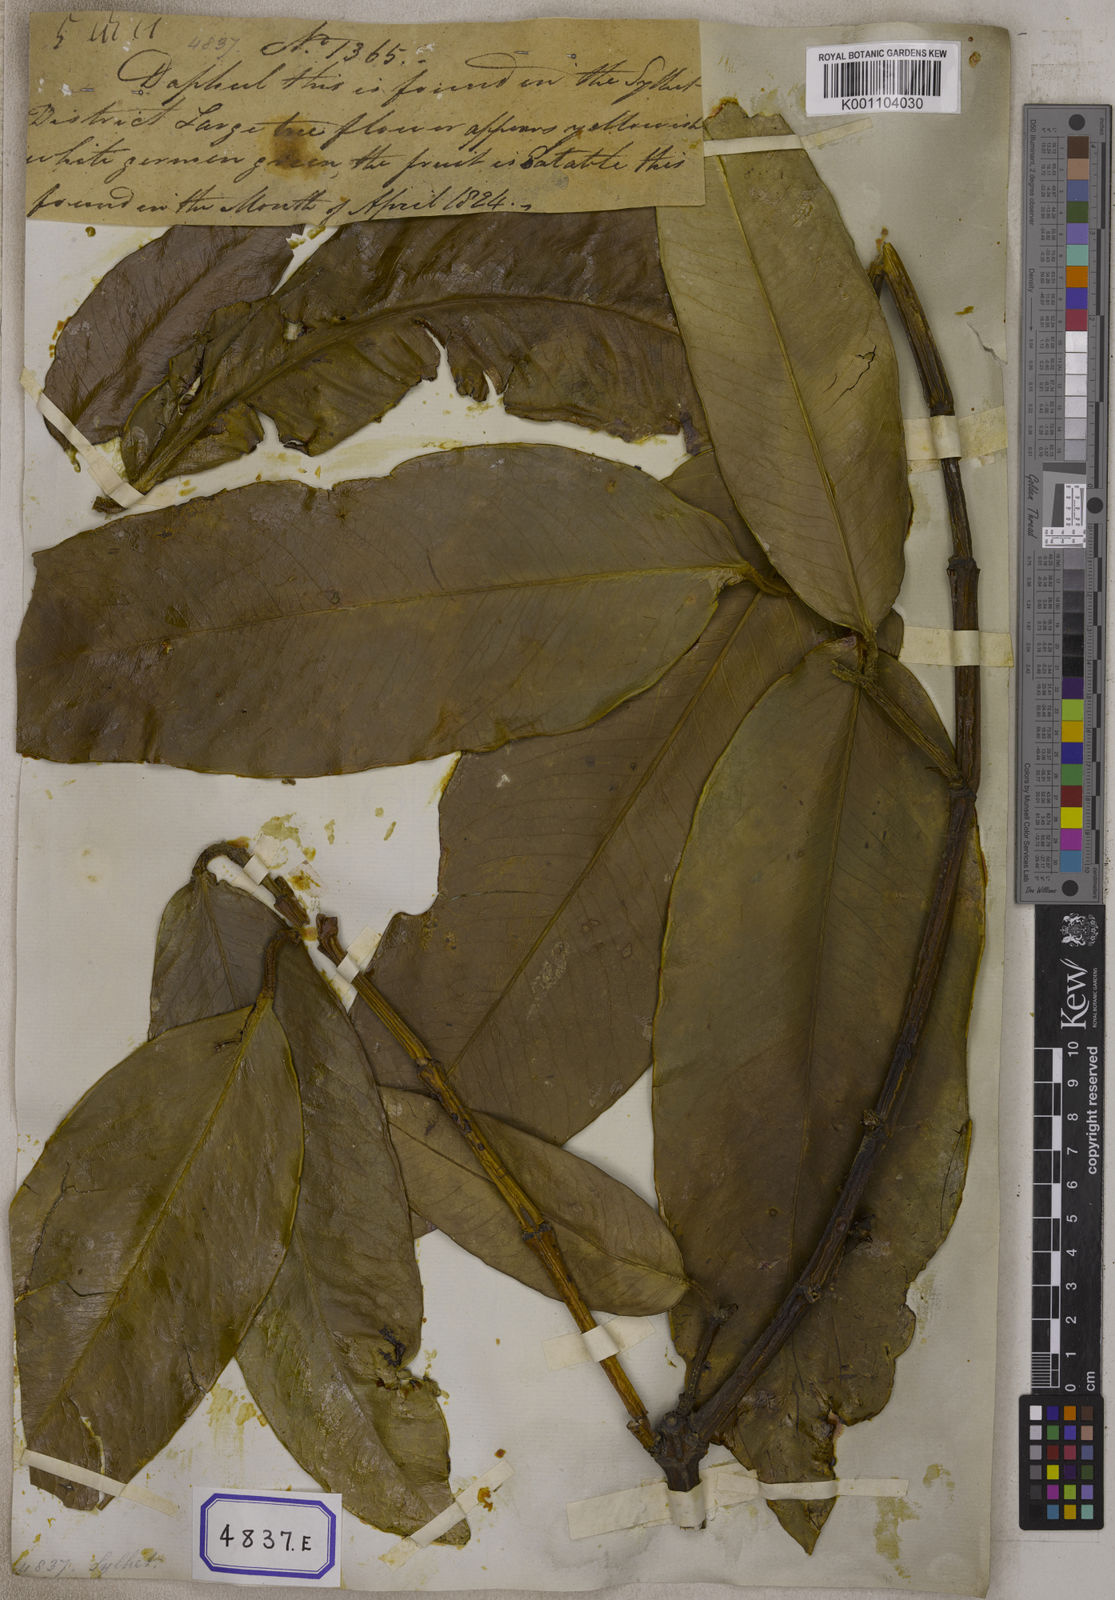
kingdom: Plantae
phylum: Tracheophyta
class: Magnoliopsida
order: Malpighiales
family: Clusiaceae
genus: Garcinia
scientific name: Garcinia xanthochymus
